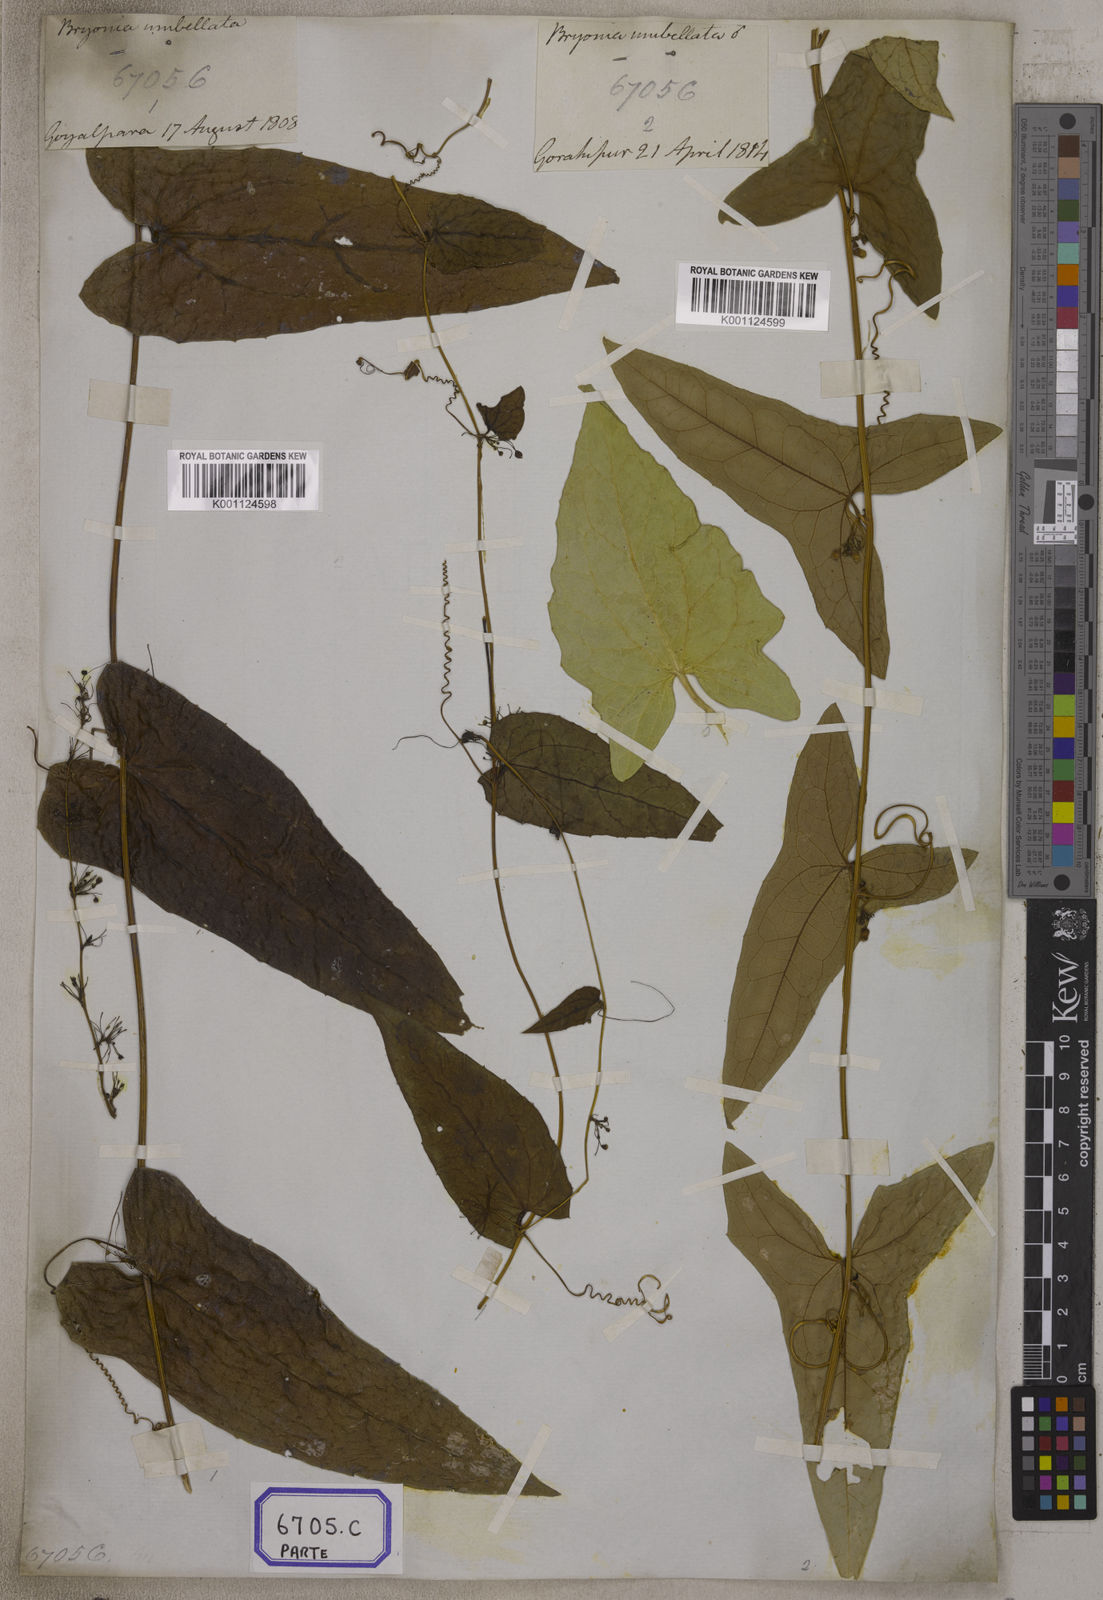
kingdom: Plantae
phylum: Tracheophyta
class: Magnoliopsida
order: Cucurbitales
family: Cucurbitaceae
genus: Bryonia
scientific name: Bryonia
